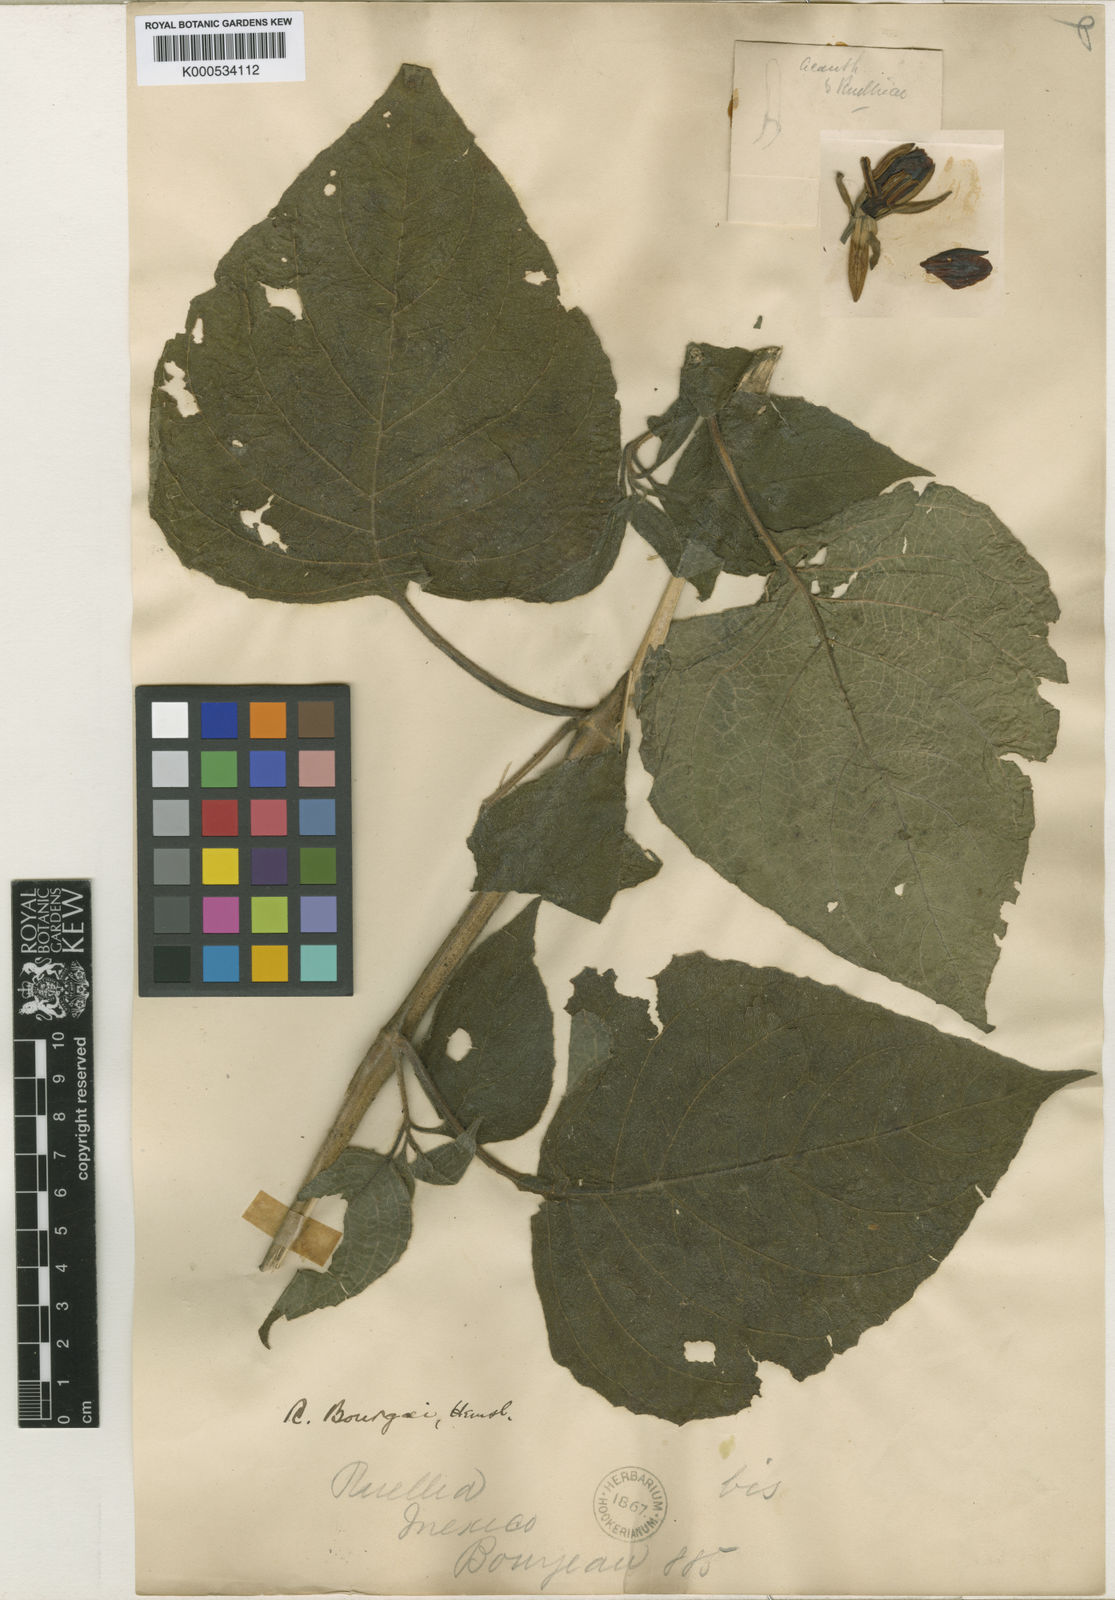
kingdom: Plantae
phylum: Tracheophyta
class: Magnoliopsida
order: Lamiales
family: Acanthaceae
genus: Ruellia
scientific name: Ruellia bourgaei
